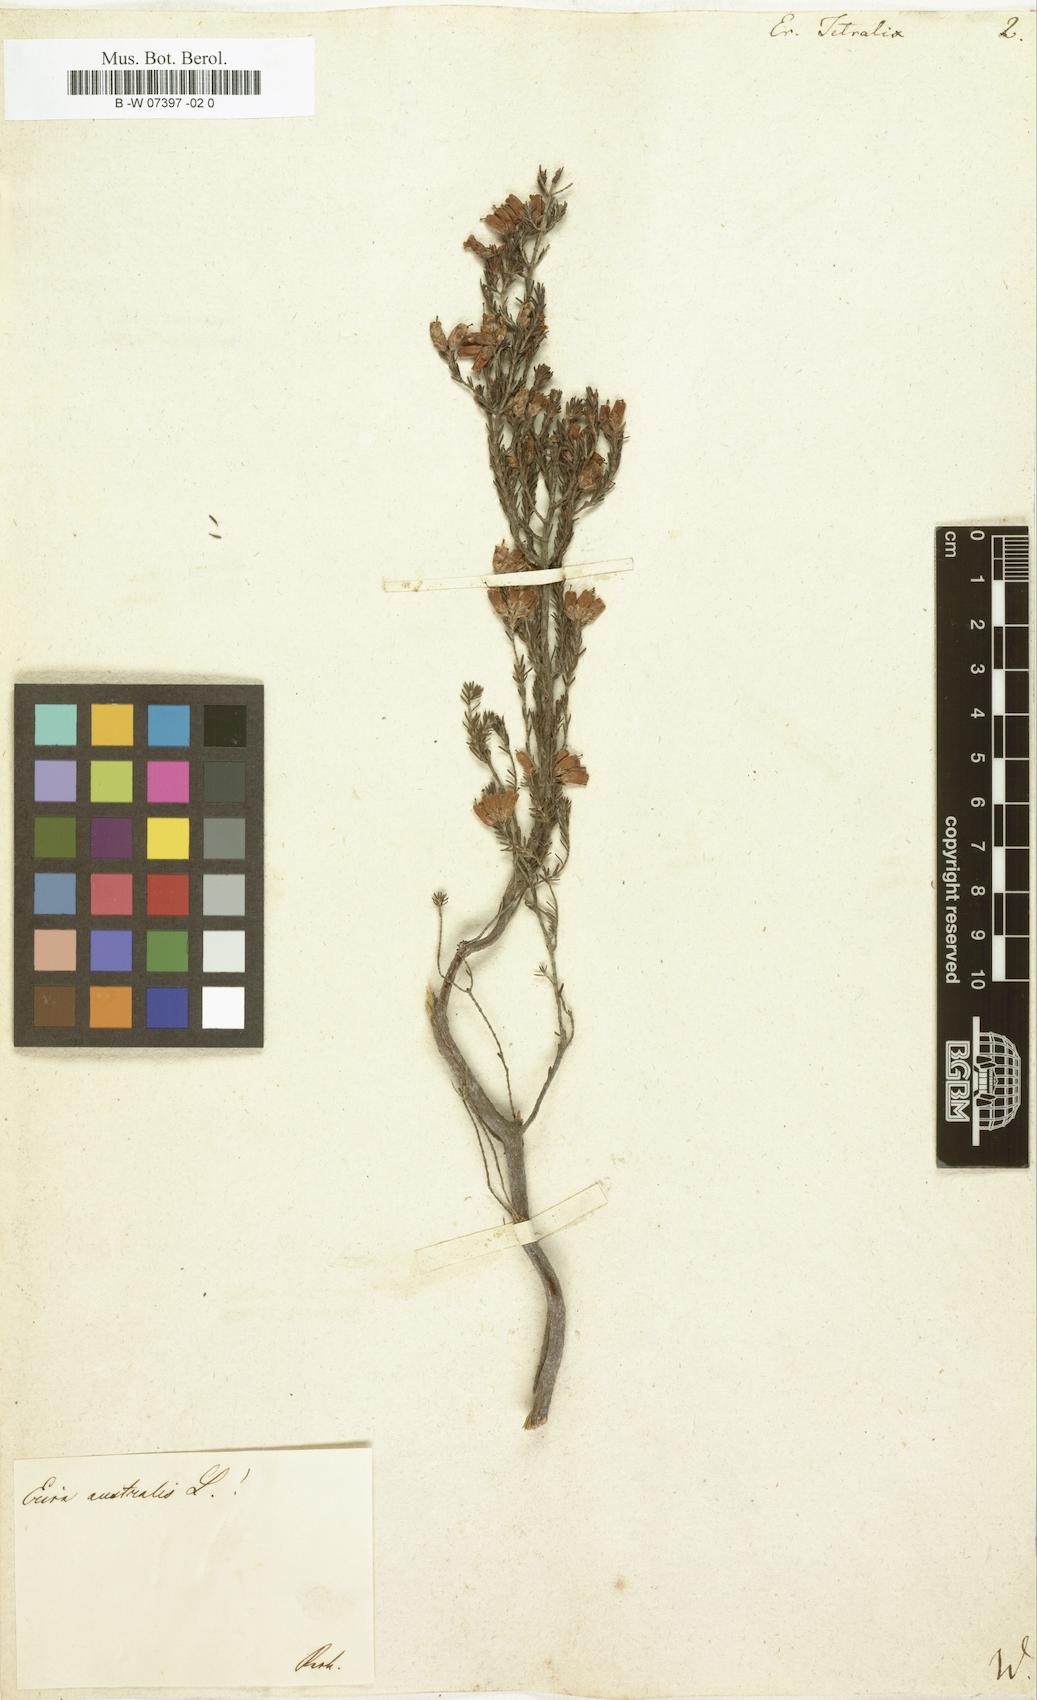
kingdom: Plantae
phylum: Tracheophyta
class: Magnoliopsida
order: Ericales
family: Ericaceae
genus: Erica
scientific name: Erica tetralix
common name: Cross-leaved heath
